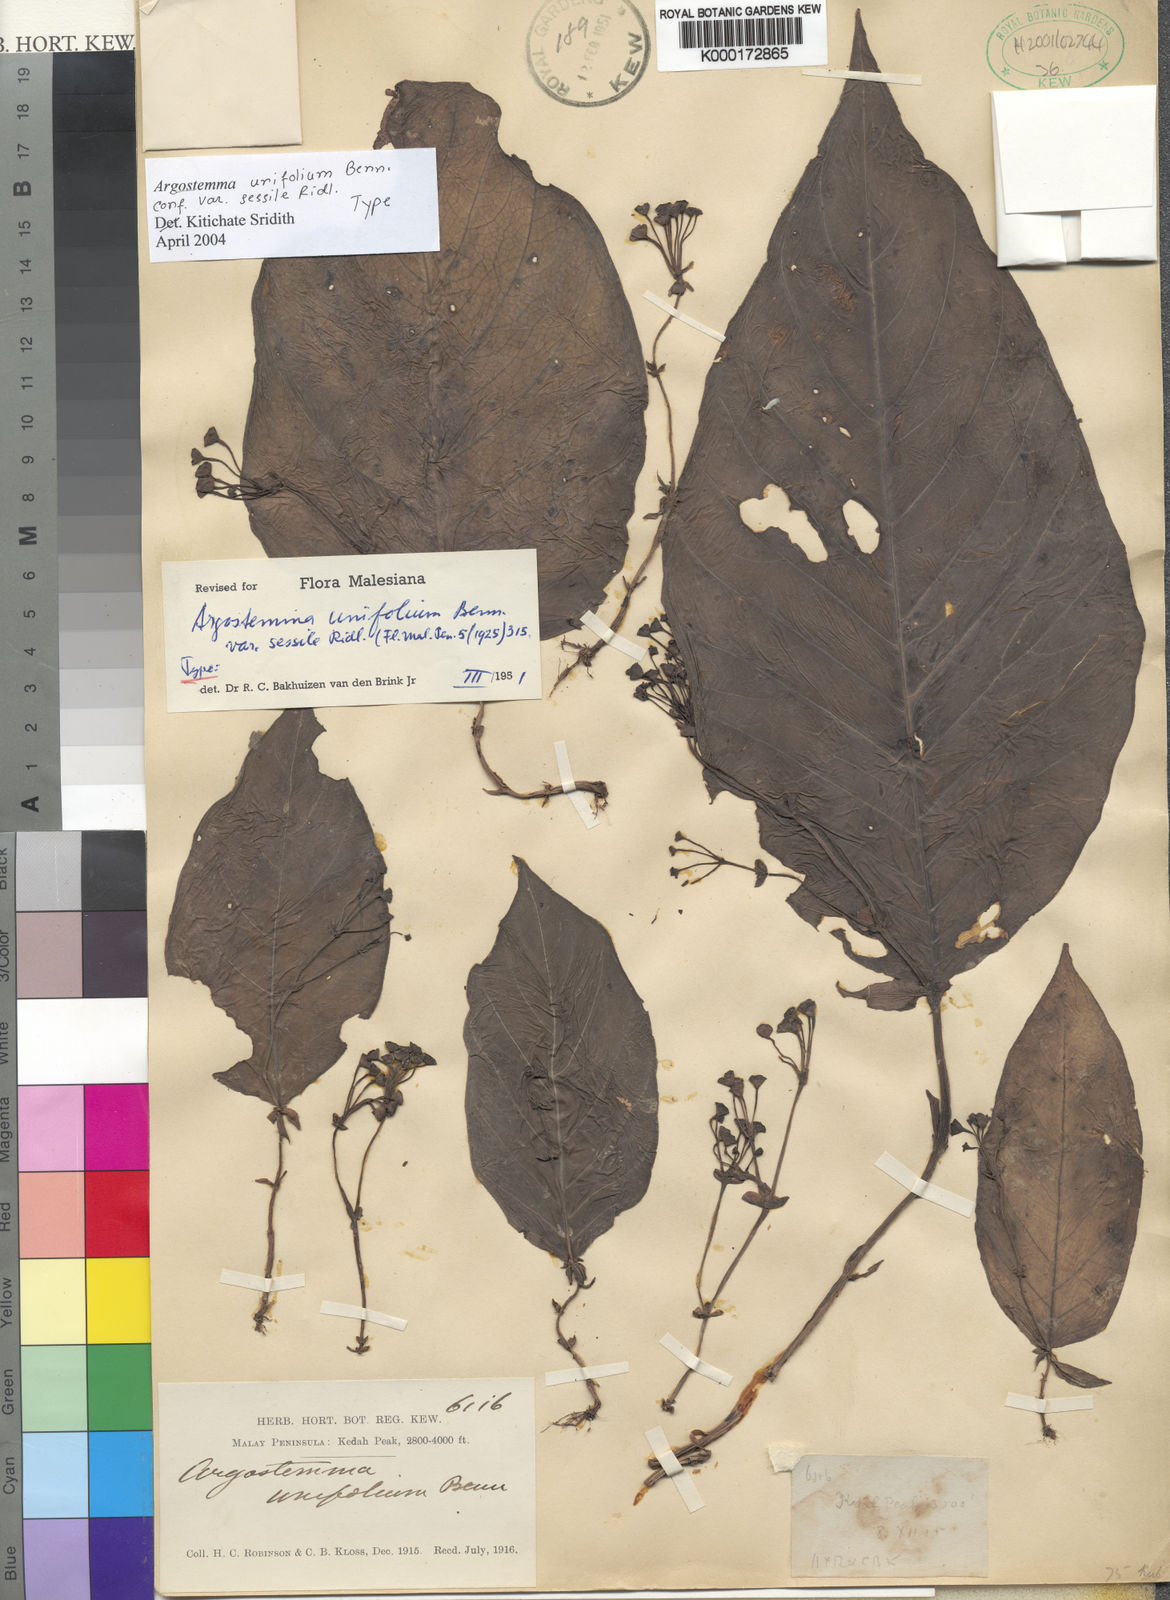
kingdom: Plantae
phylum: Tracheophyta
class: Magnoliopsida
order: Gentianales
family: Rubiaceae
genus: Argostemma
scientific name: Argostemma unifolium
